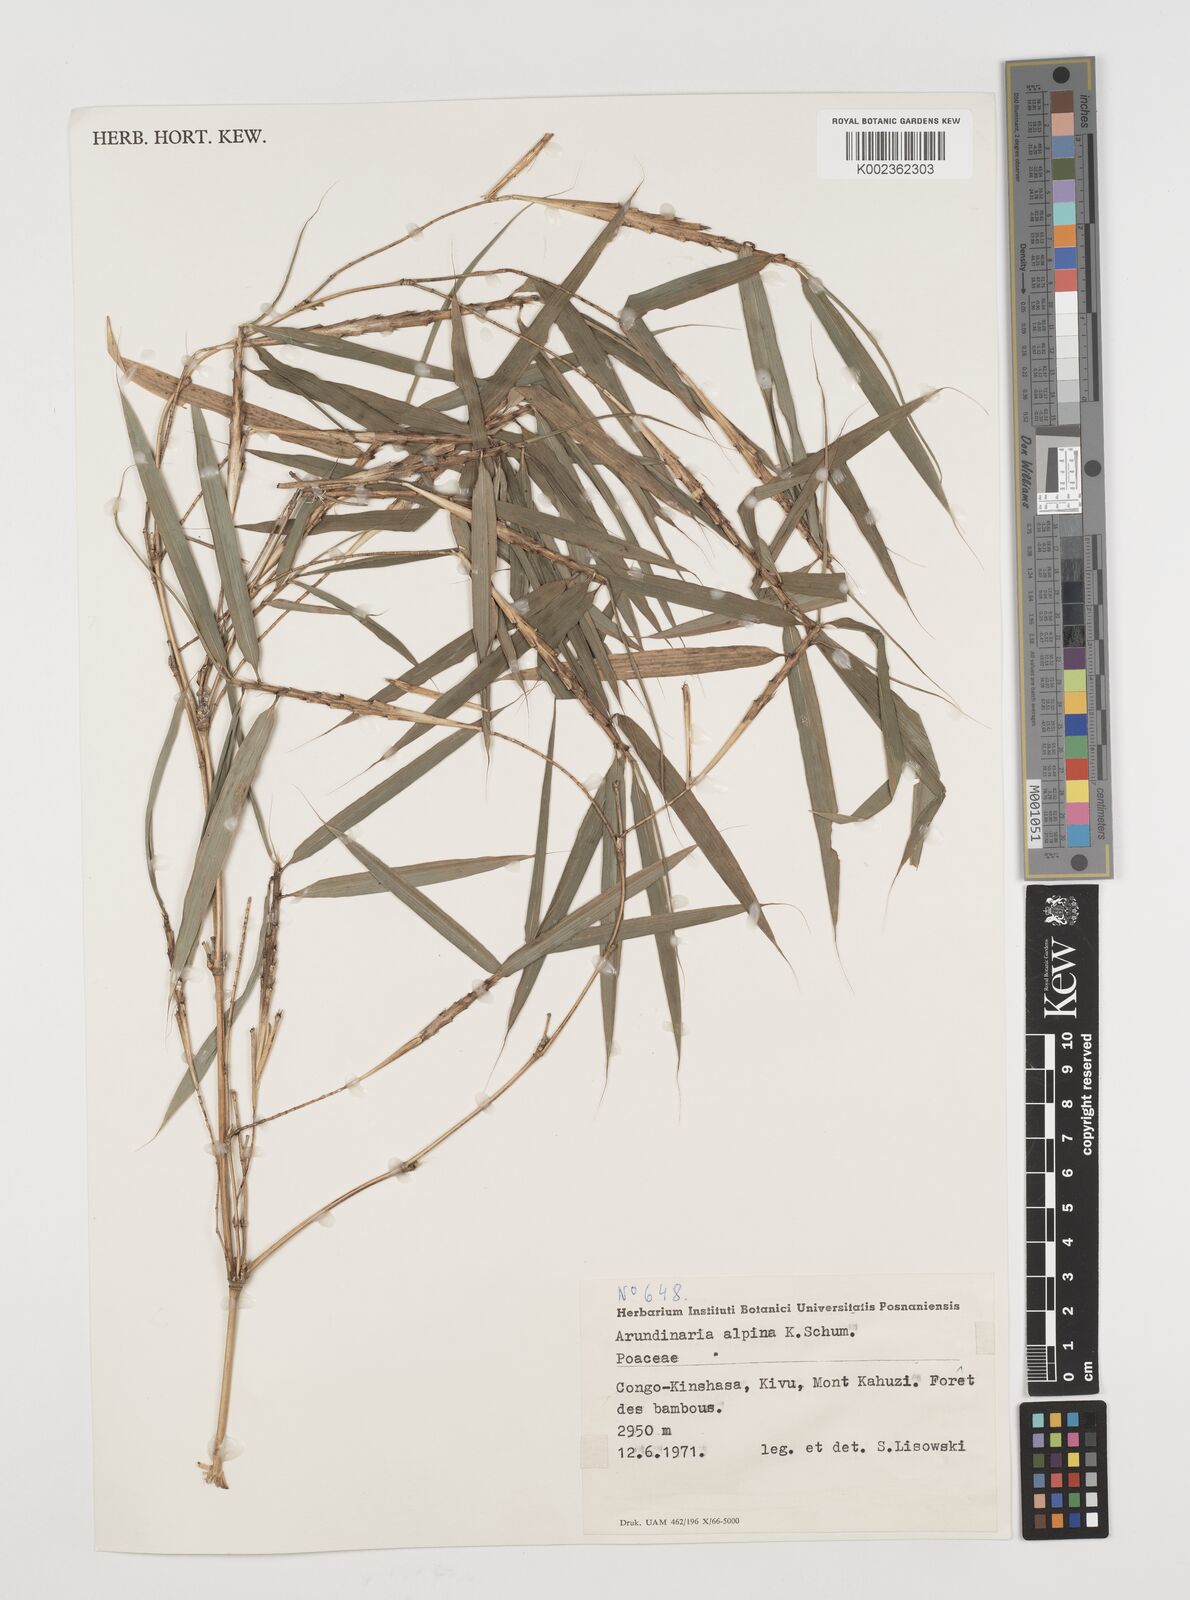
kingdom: Plantae
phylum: Tracheophyta
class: Liliopsida
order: Poales
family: Poaceae
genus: Oldeania
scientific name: Oldeania alpina
